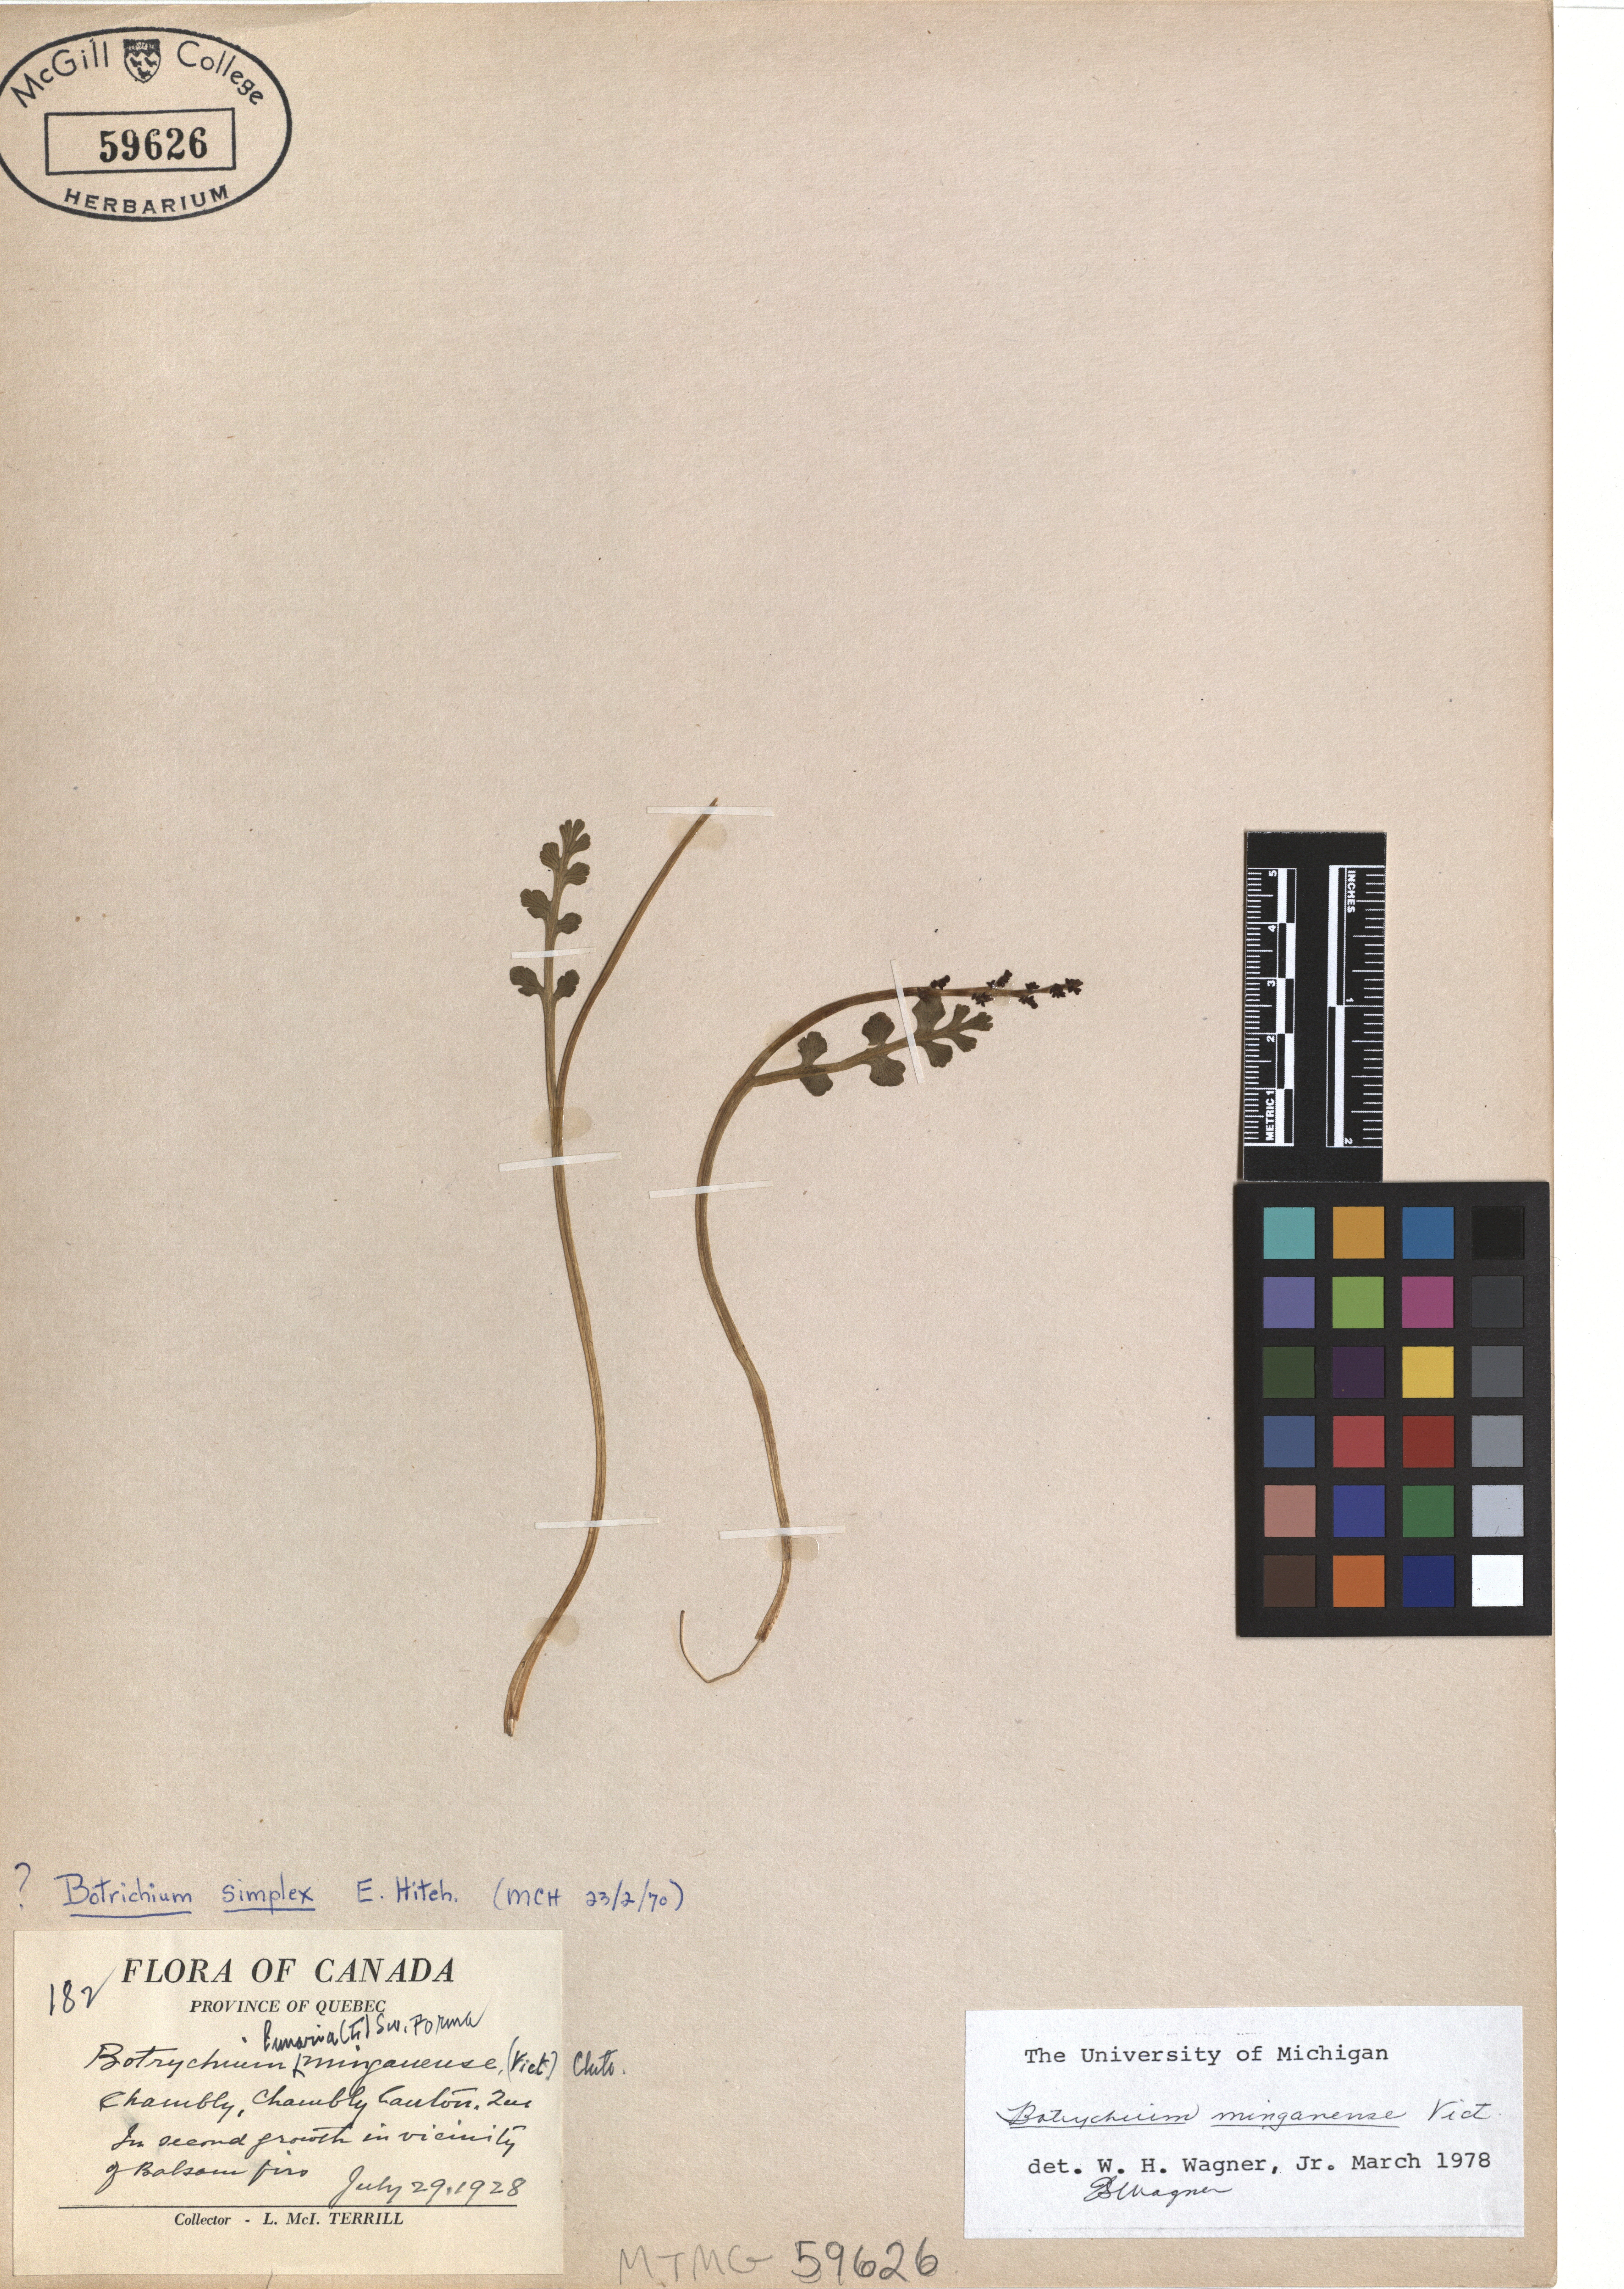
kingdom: Plantae
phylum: Tracheophyta
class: Polypodiopsida
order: Ophioglossales
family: Ophioglossaceae
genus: Botrychium
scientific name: Botrychium minganense
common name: Mingan grapefern
